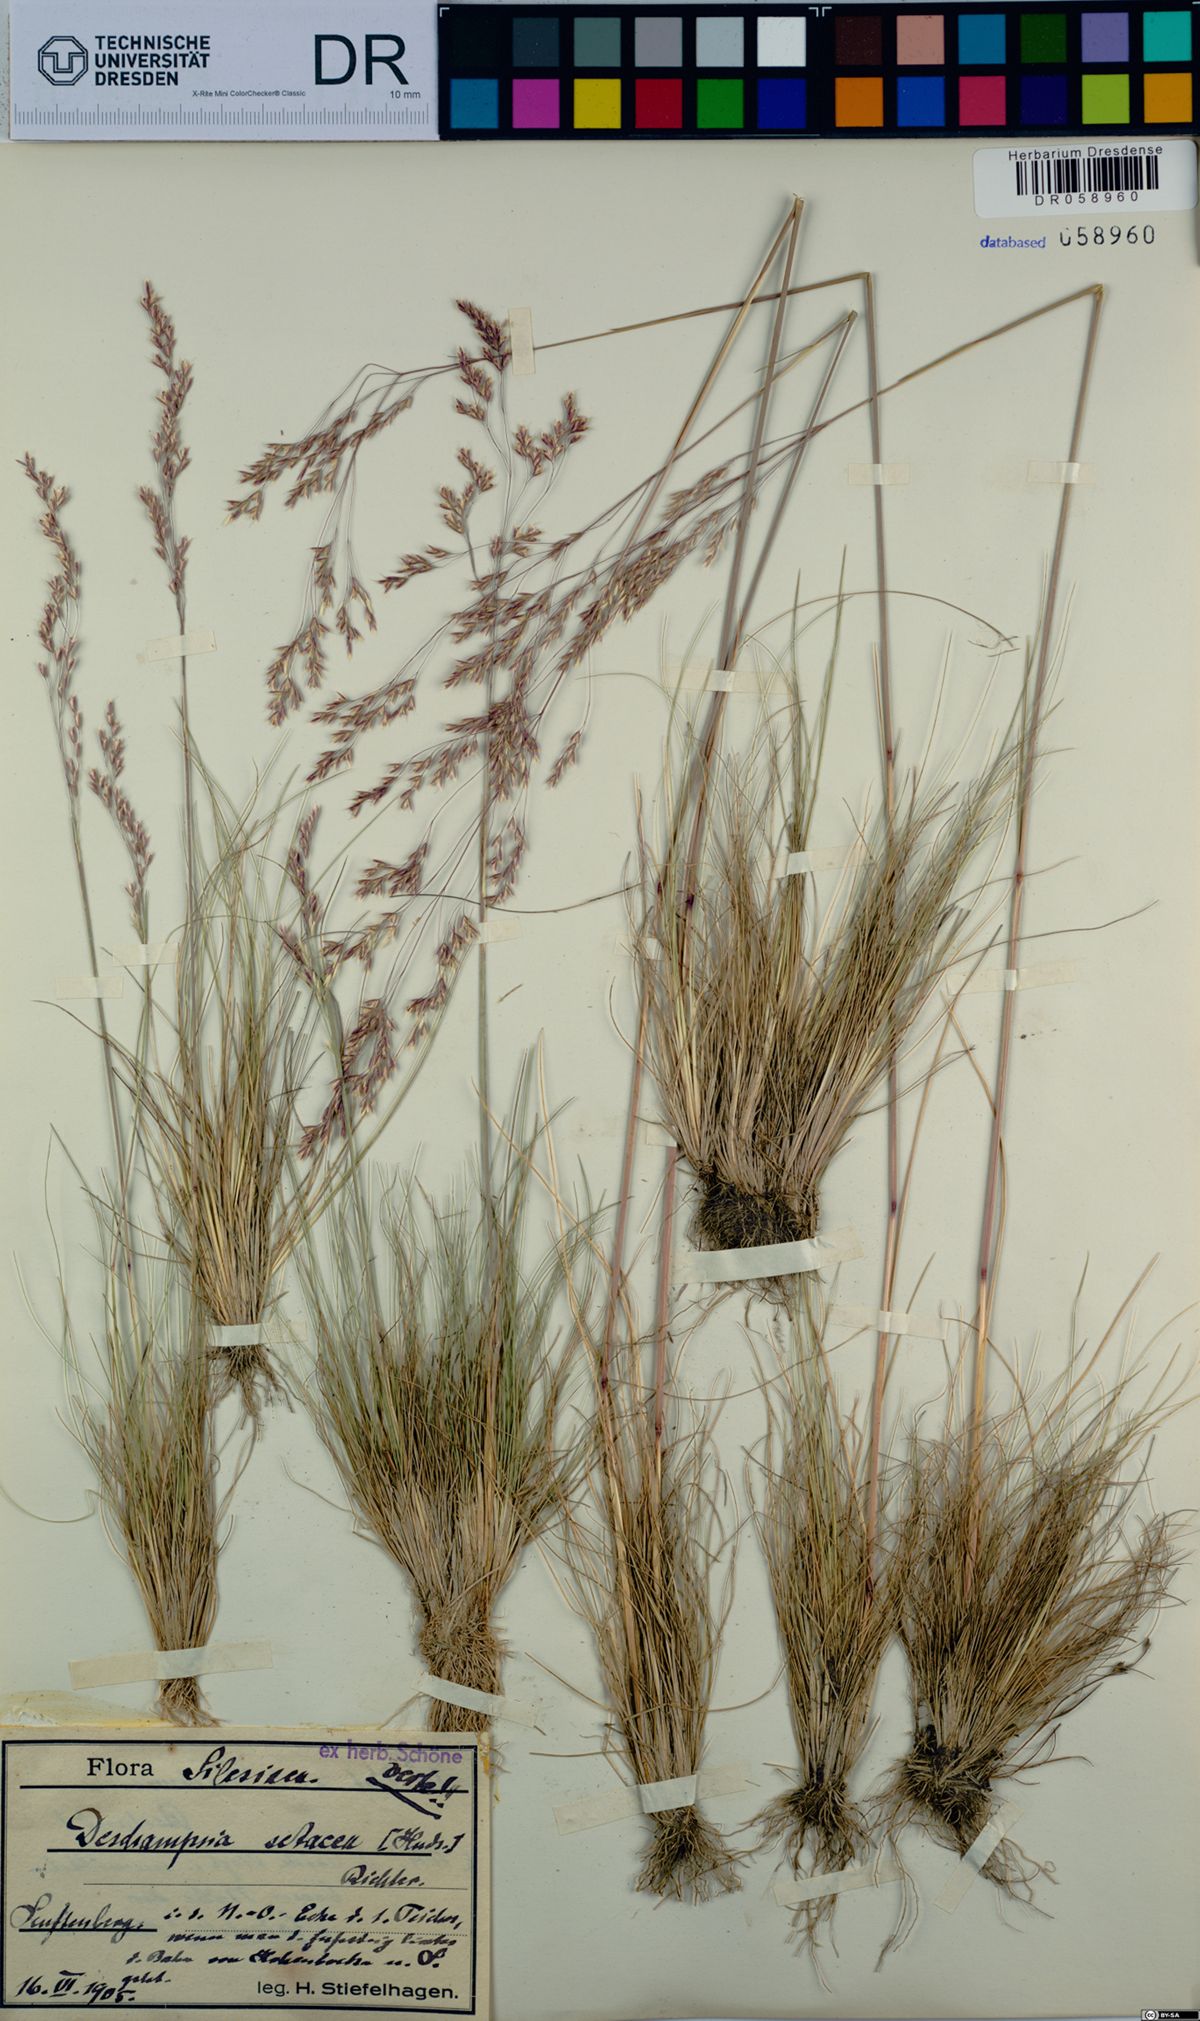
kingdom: Plantae
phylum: Tracheophyta
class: Liliopsida
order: Poales
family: Poaceae
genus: Deschampsia
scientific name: Deschampsia setacea
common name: Bog hair-grass
